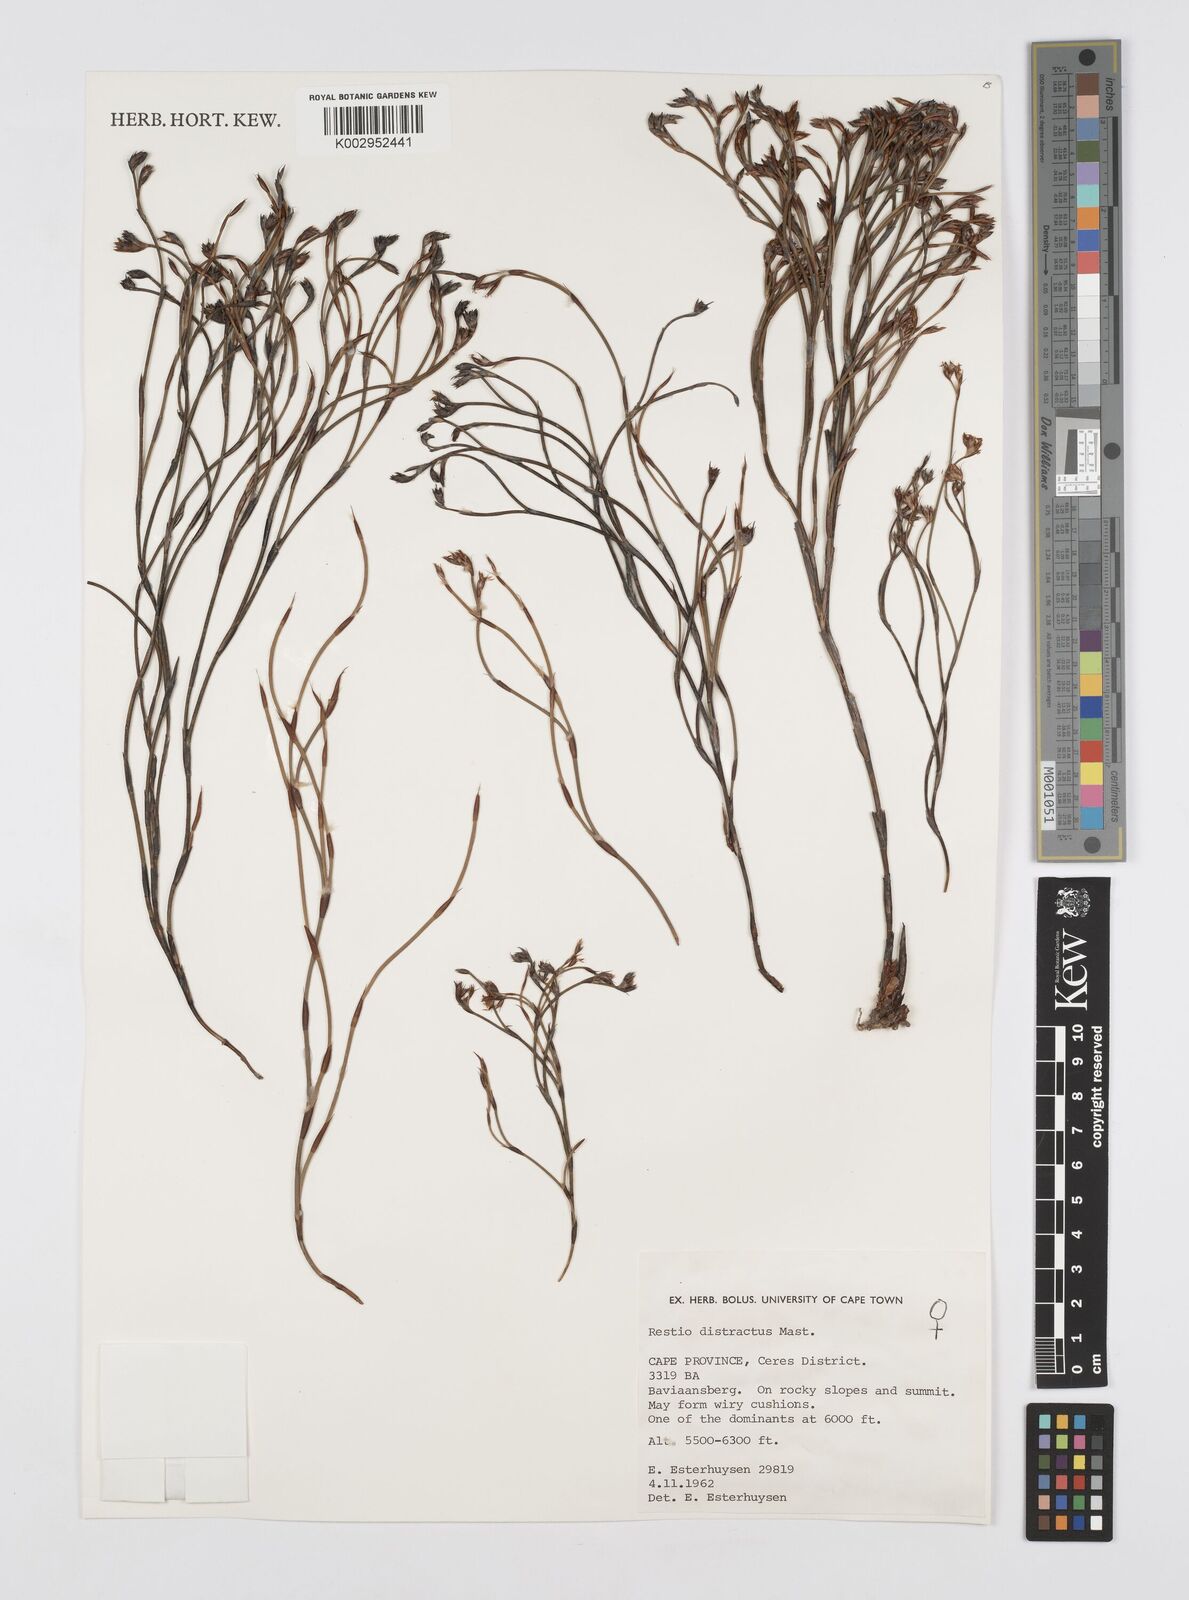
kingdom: Plantae
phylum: Tracheophyta
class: Liliopsida
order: Poales
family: Restionaceae
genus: Restio
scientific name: Restio distractus
